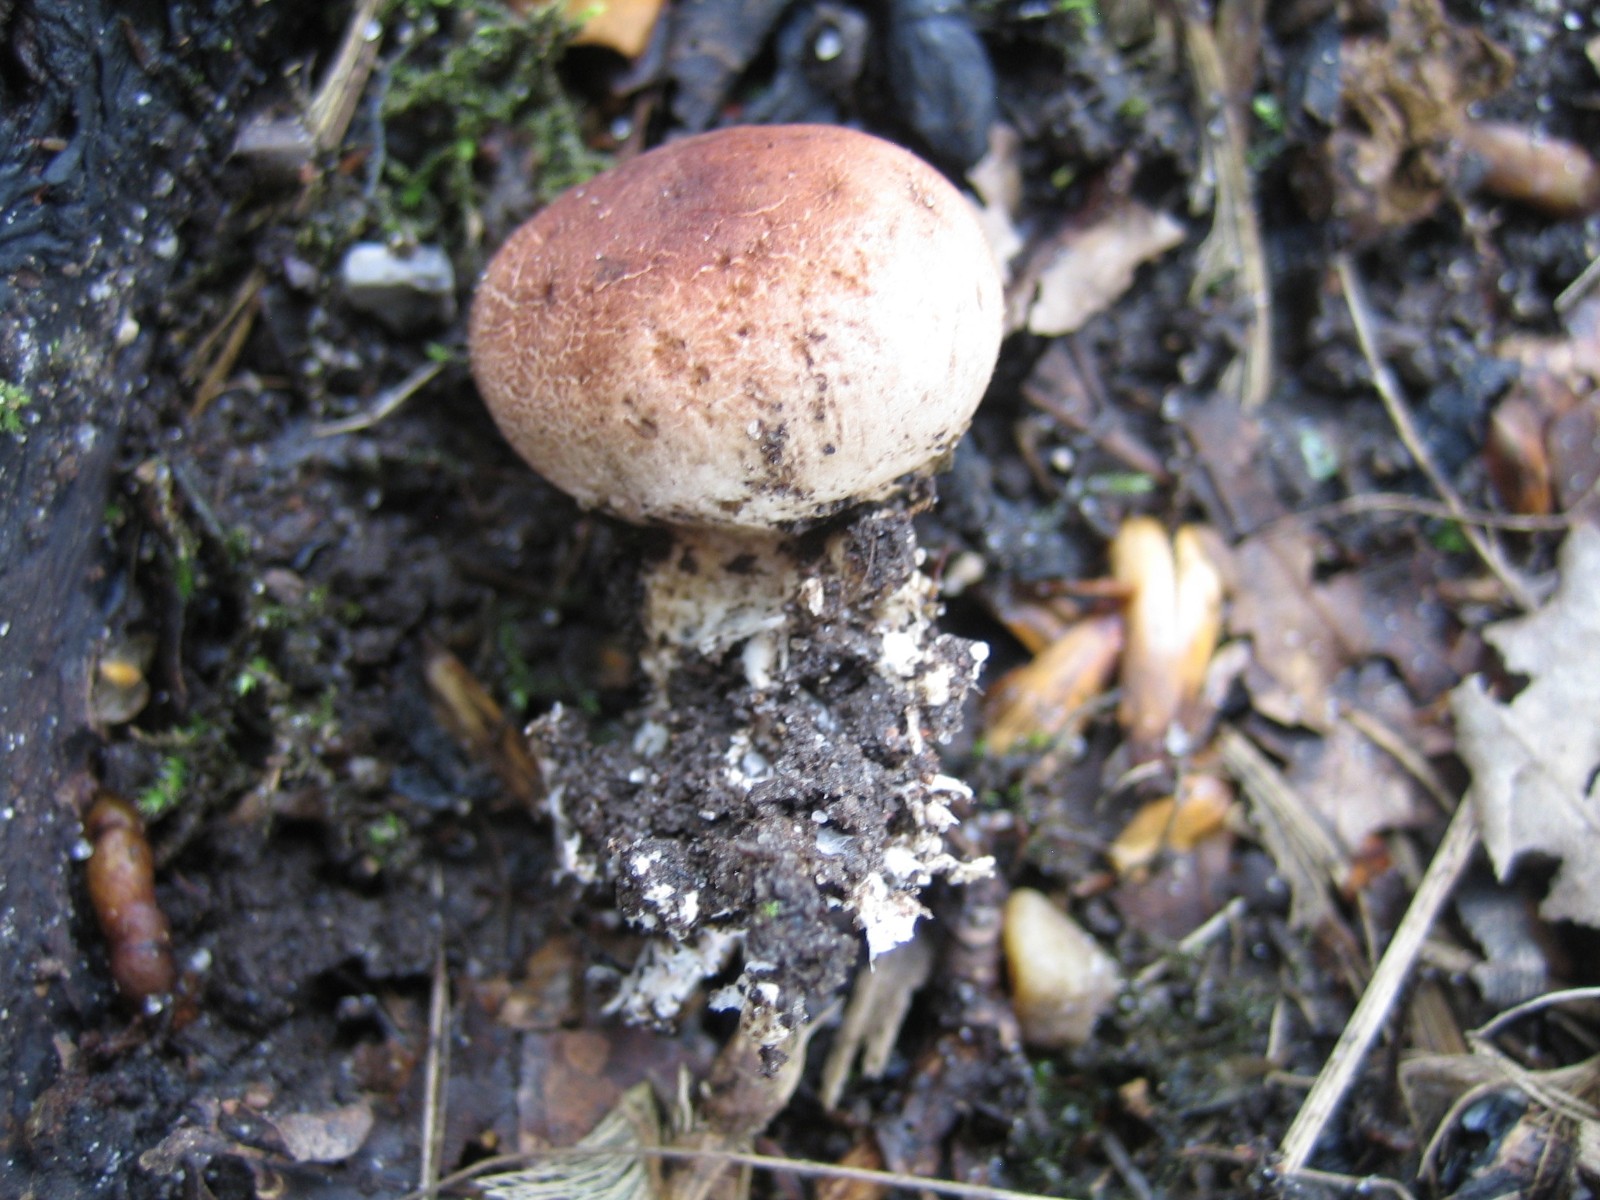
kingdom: Fungi
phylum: Basidiomycota
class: Agaricomycetes
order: Boletales
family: Sclerodermataceae
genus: Scleroderma
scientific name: Scleroderma
